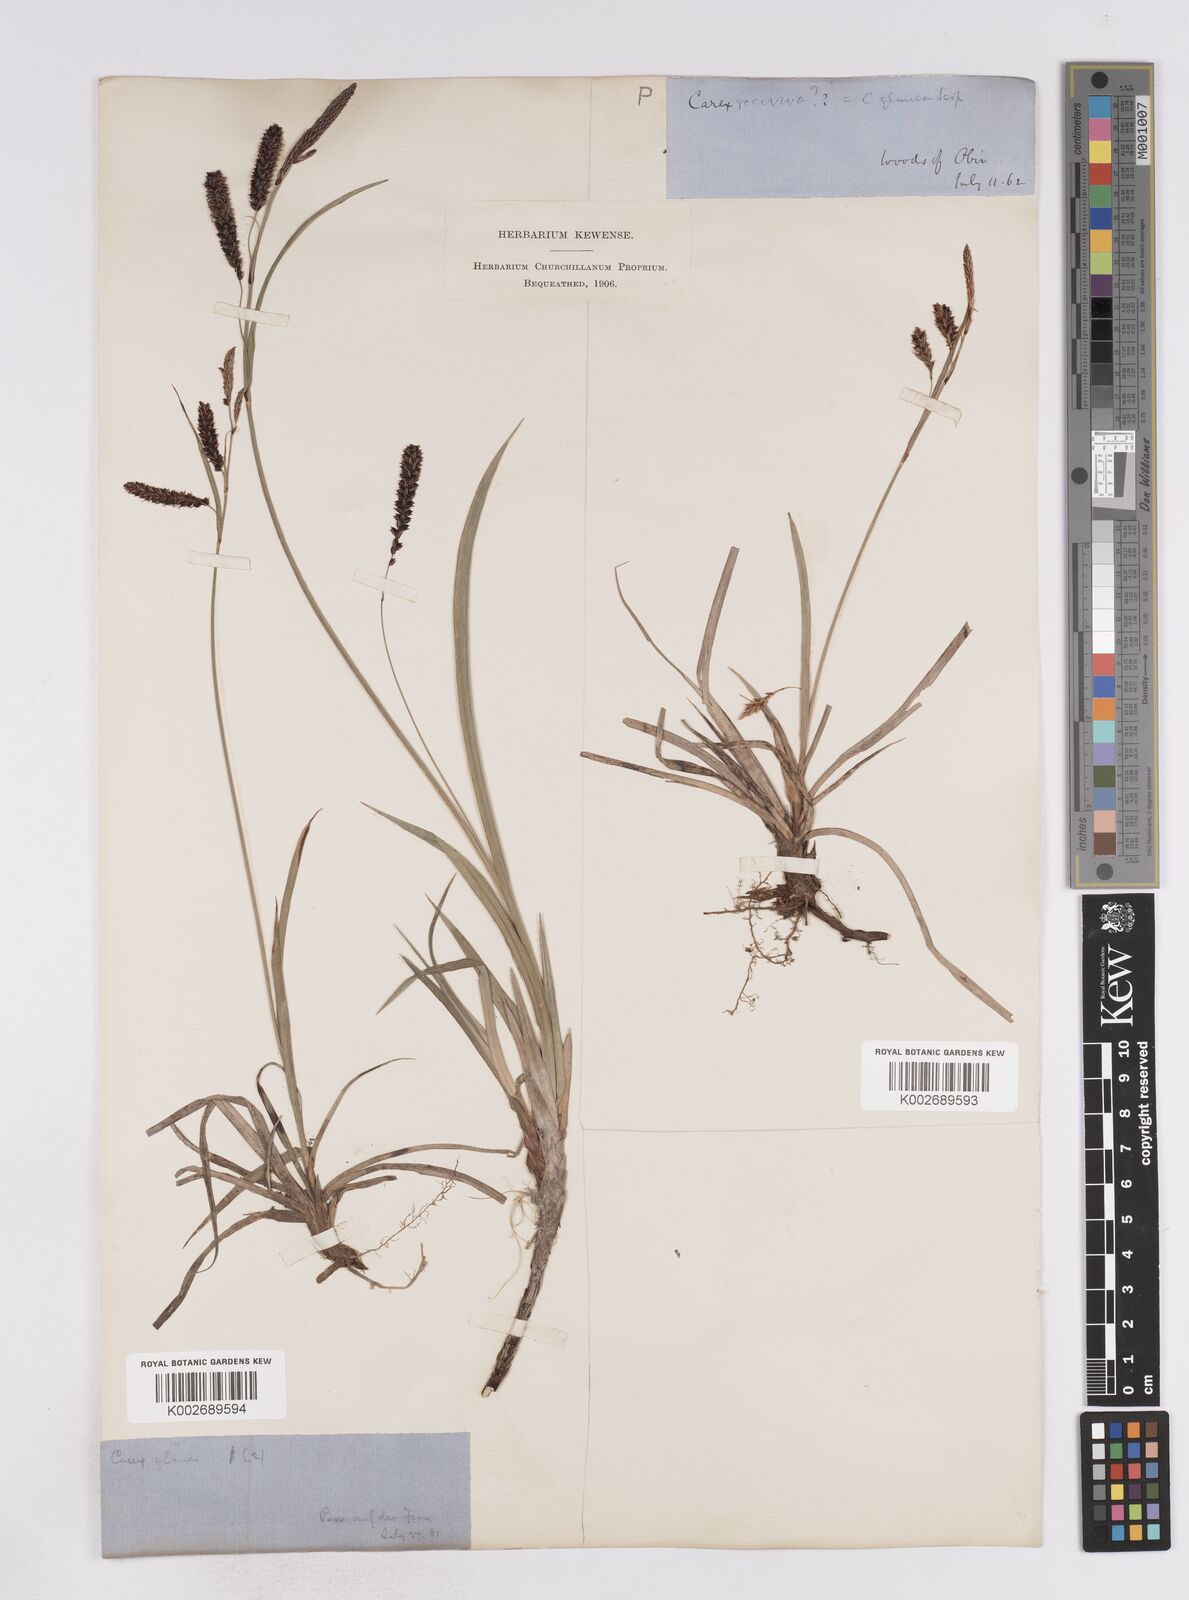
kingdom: Plantae
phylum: Tracheophyta
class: Liliopsida
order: Poales
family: Cyperaceae
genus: Carex
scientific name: Carex flacca
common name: Glaucous sedge
